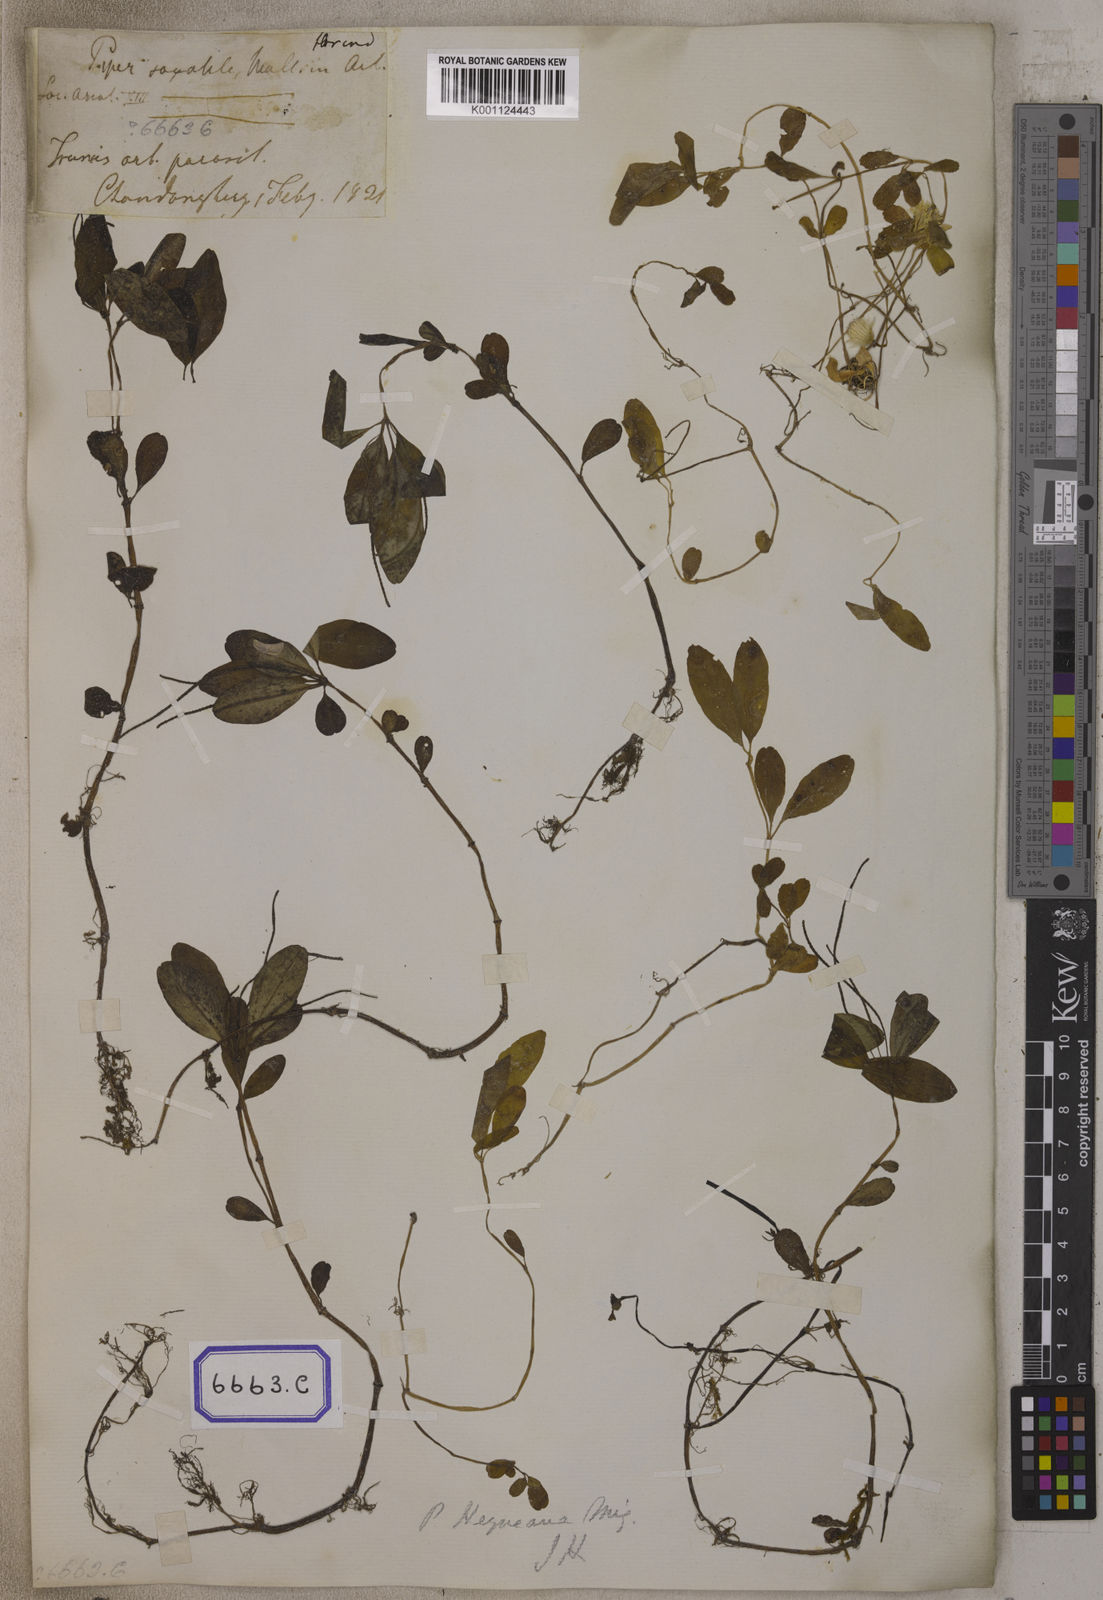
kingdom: Plantae
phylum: Tracheophyta
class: Magnoliopsida
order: Piperales
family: Piperaceae
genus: Peperomia
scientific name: Peperomia leptostachya
